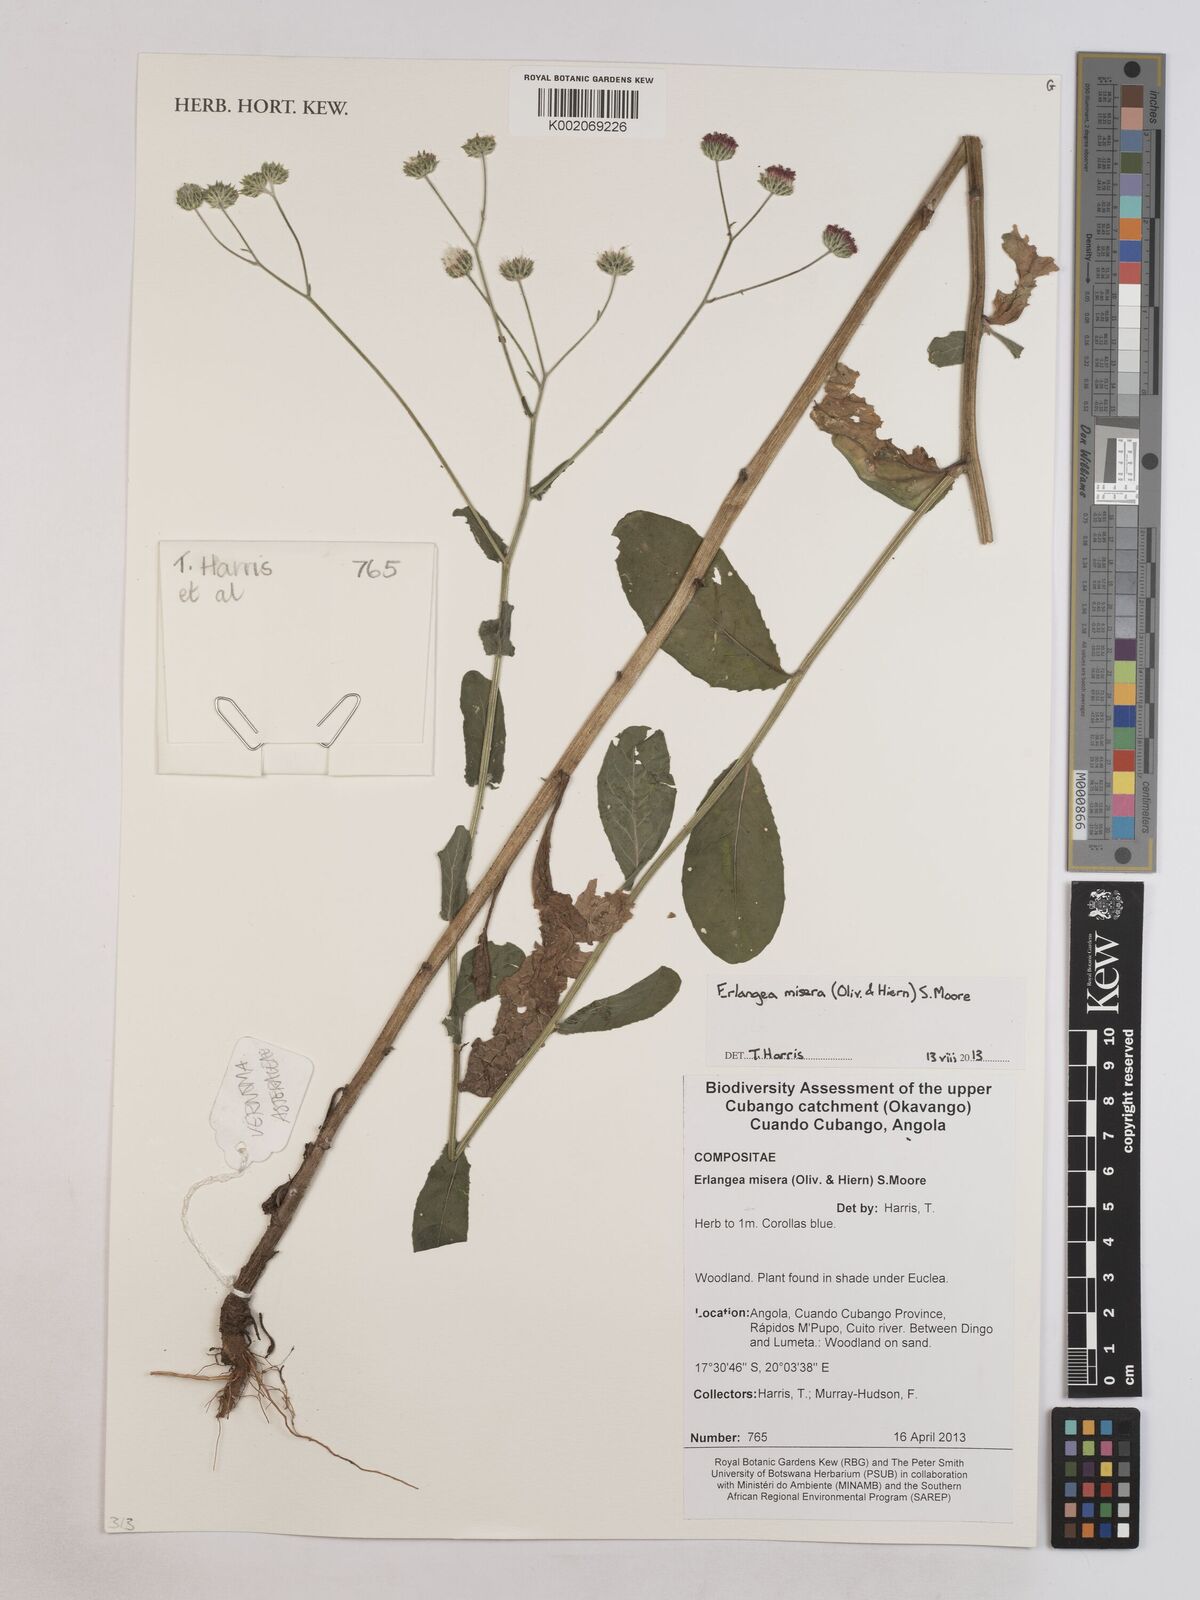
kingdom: Plantae
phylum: Tracheophyta
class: Magnoliopsida
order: Asterales
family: Asteraceae
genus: Erlangea
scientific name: Erlangea misera
